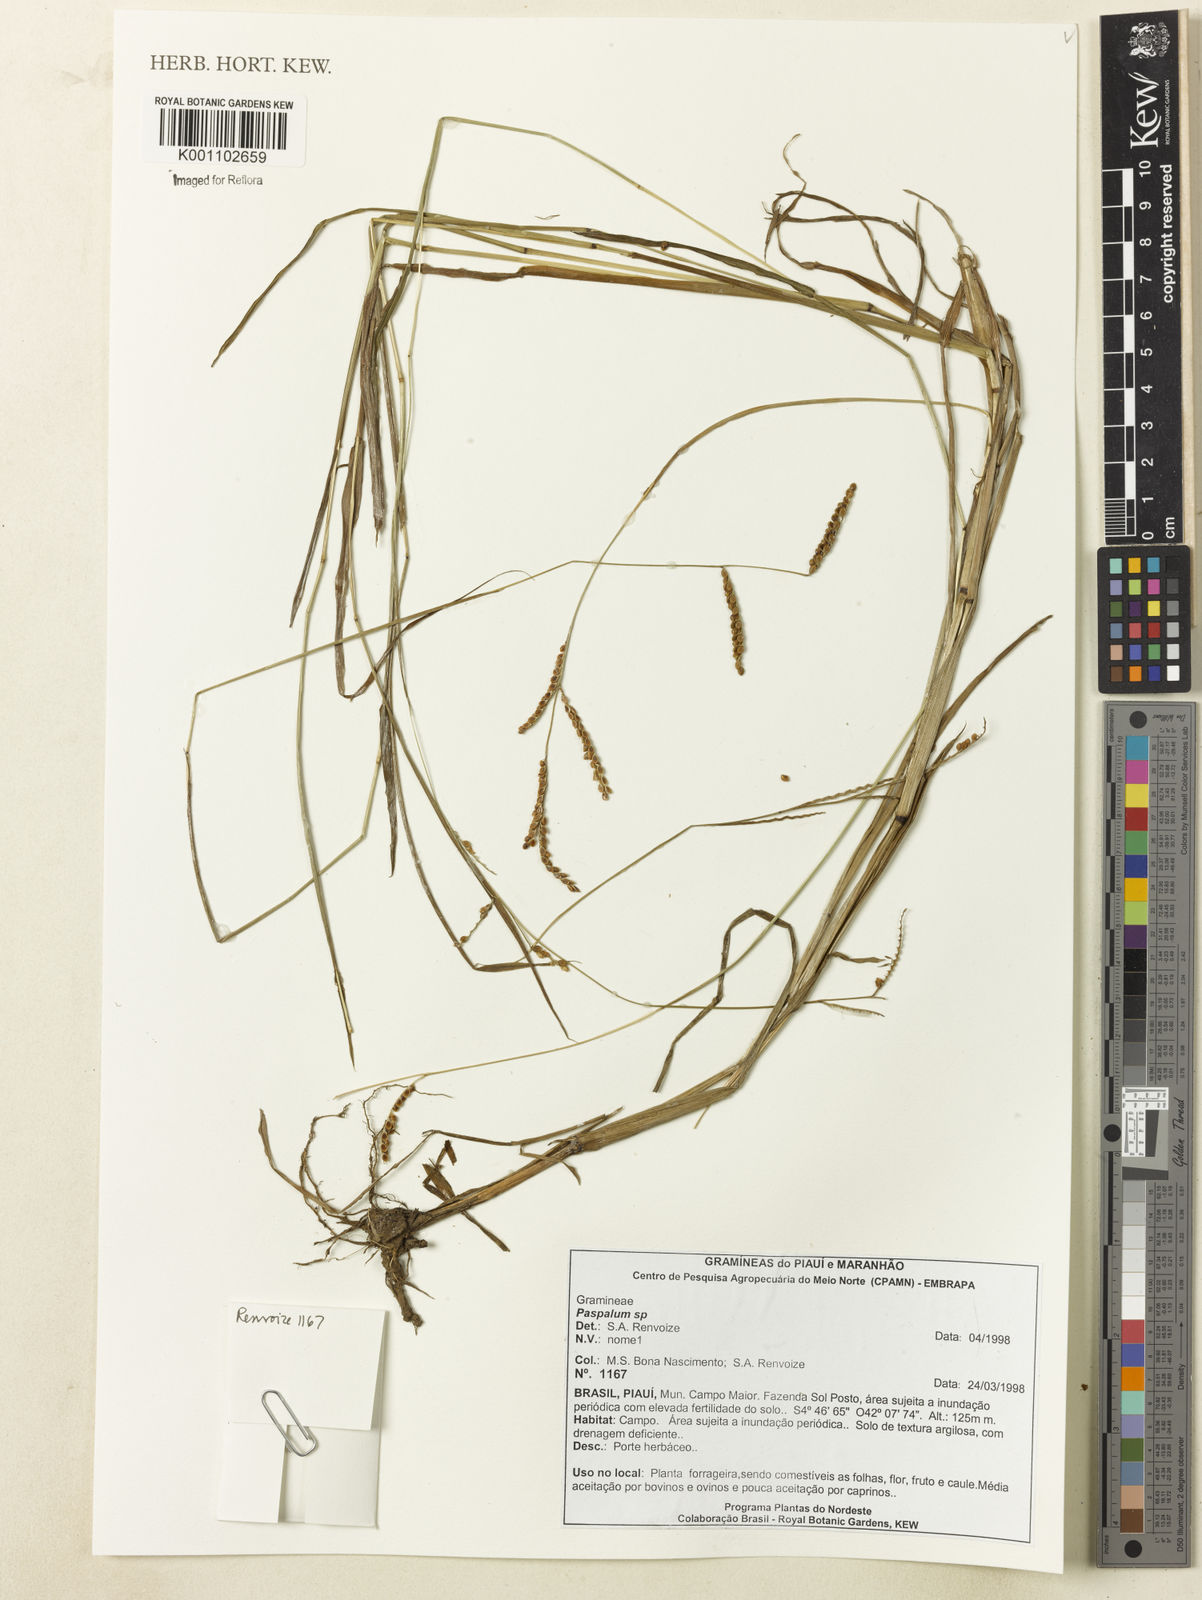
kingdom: Plantae
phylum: Tracheophyta
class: Liliopsida
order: Poales
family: Poaceae
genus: Paspalum
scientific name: Paspalum
